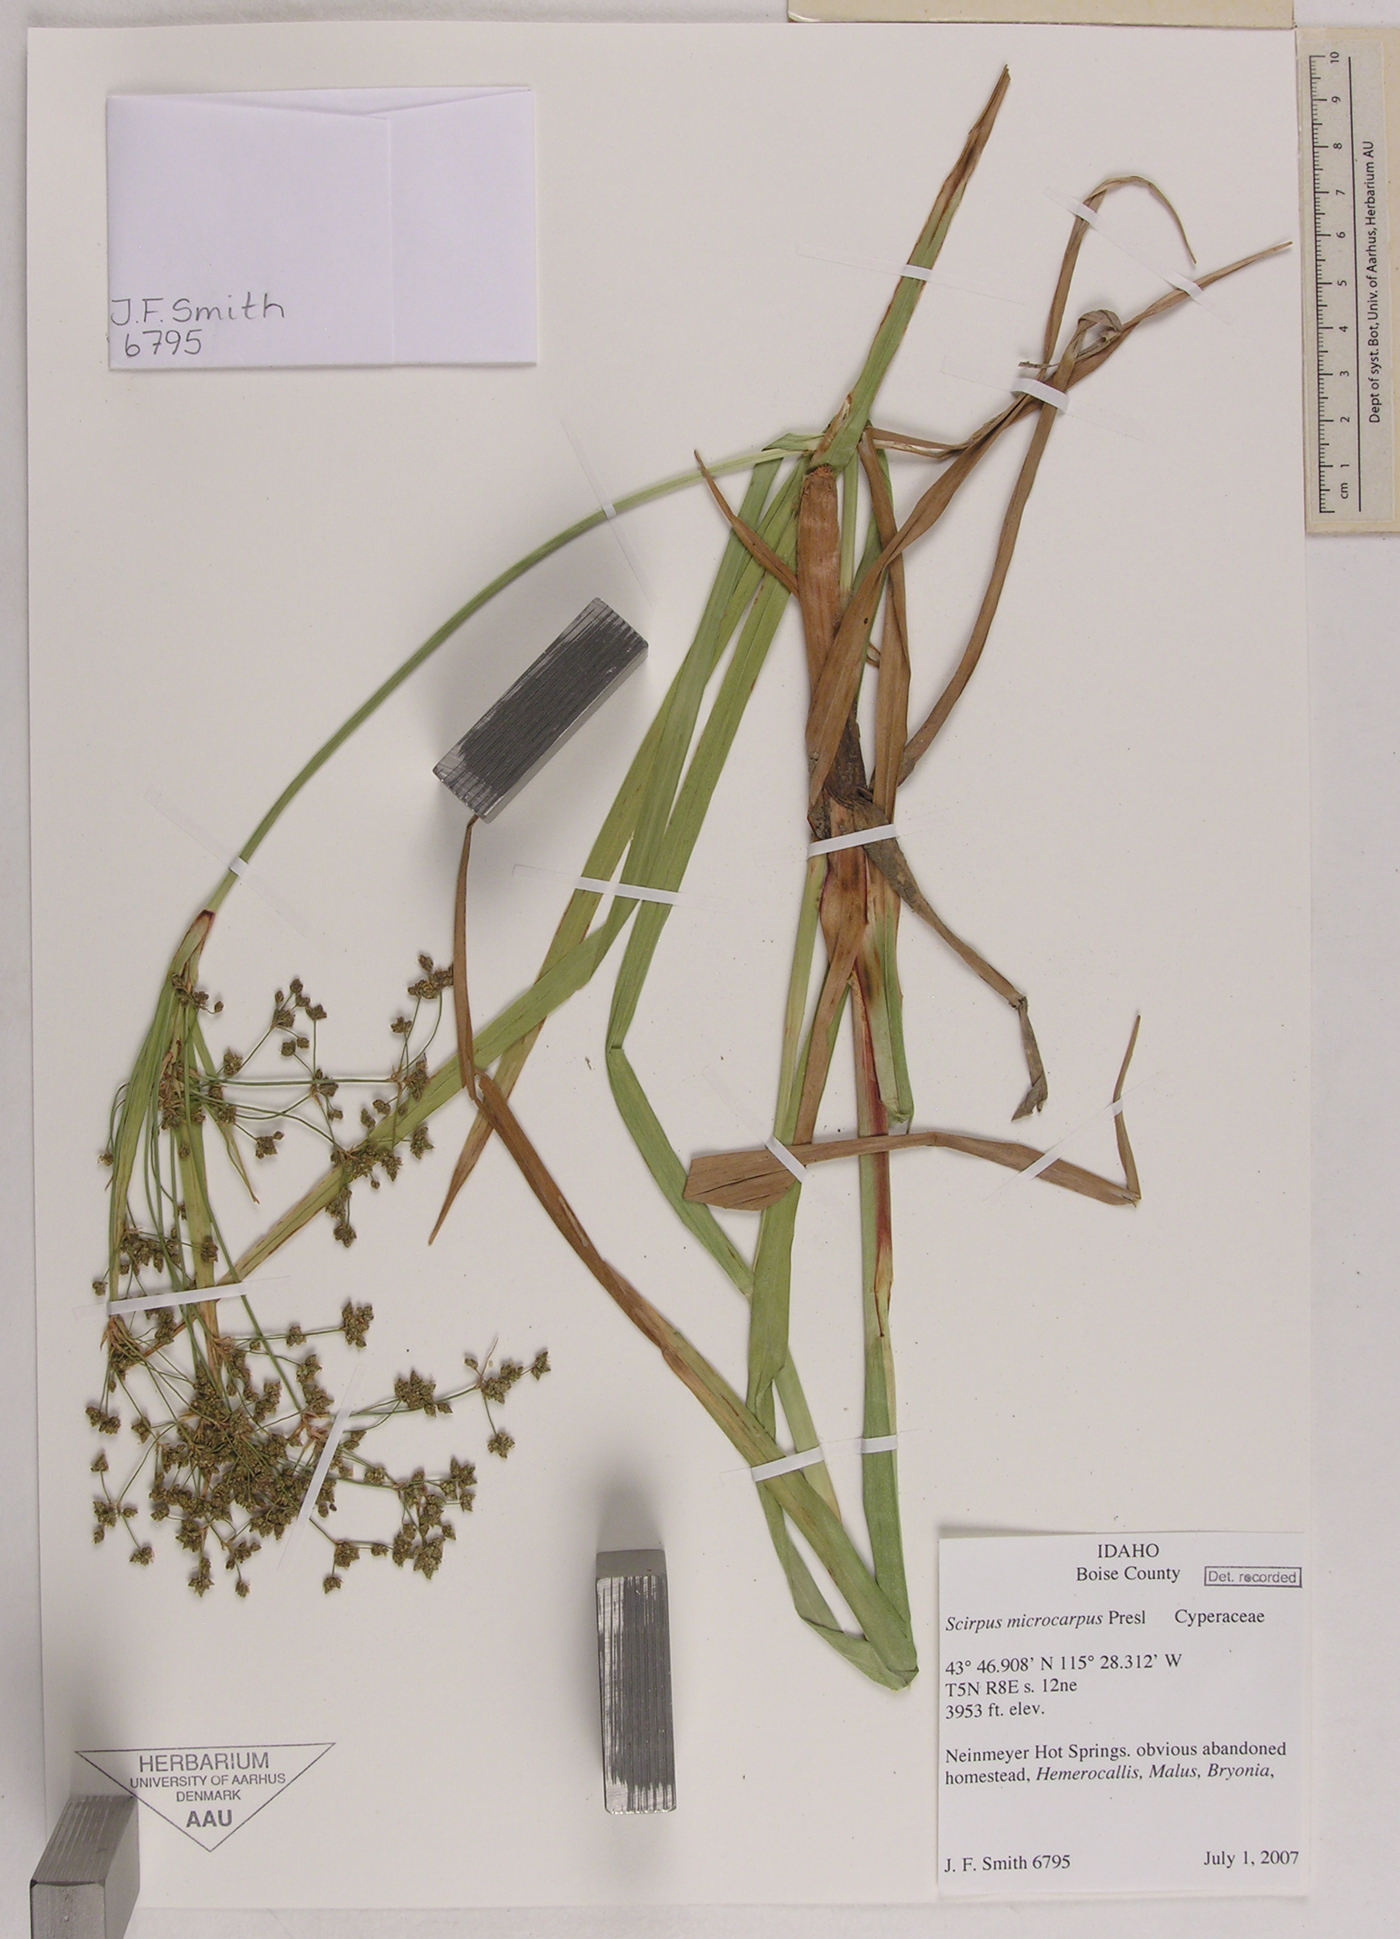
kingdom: Plantae
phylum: Tracheophyta
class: Liliopsida
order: Poales
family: Cyperaceae
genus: Scirpus
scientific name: Scirpus microcarpus
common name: Panicled bulrush
